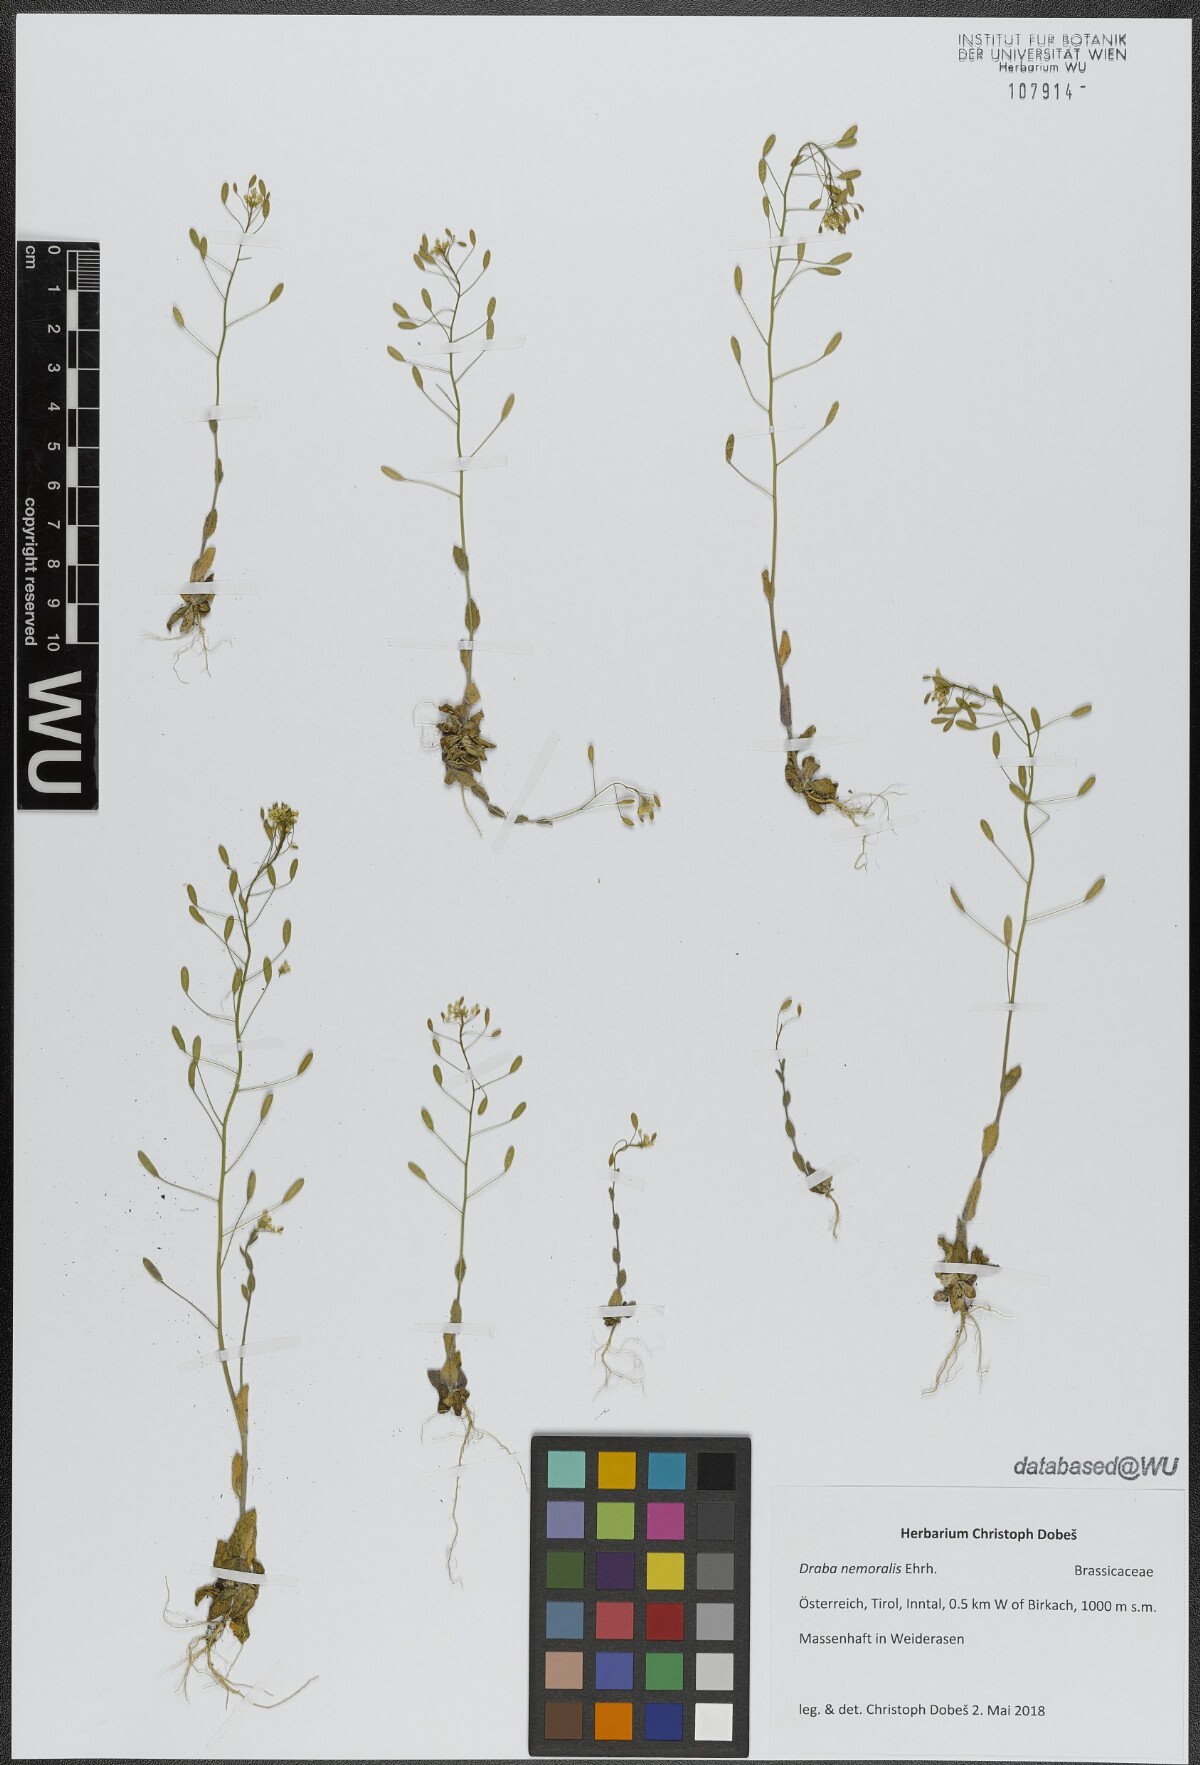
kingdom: Plantae
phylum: Tracheophyta
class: Magnoliopsida
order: Brassicales
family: Brassicaceae
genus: Draba
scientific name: Draba nemorosa
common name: Wood whitlow-grass
